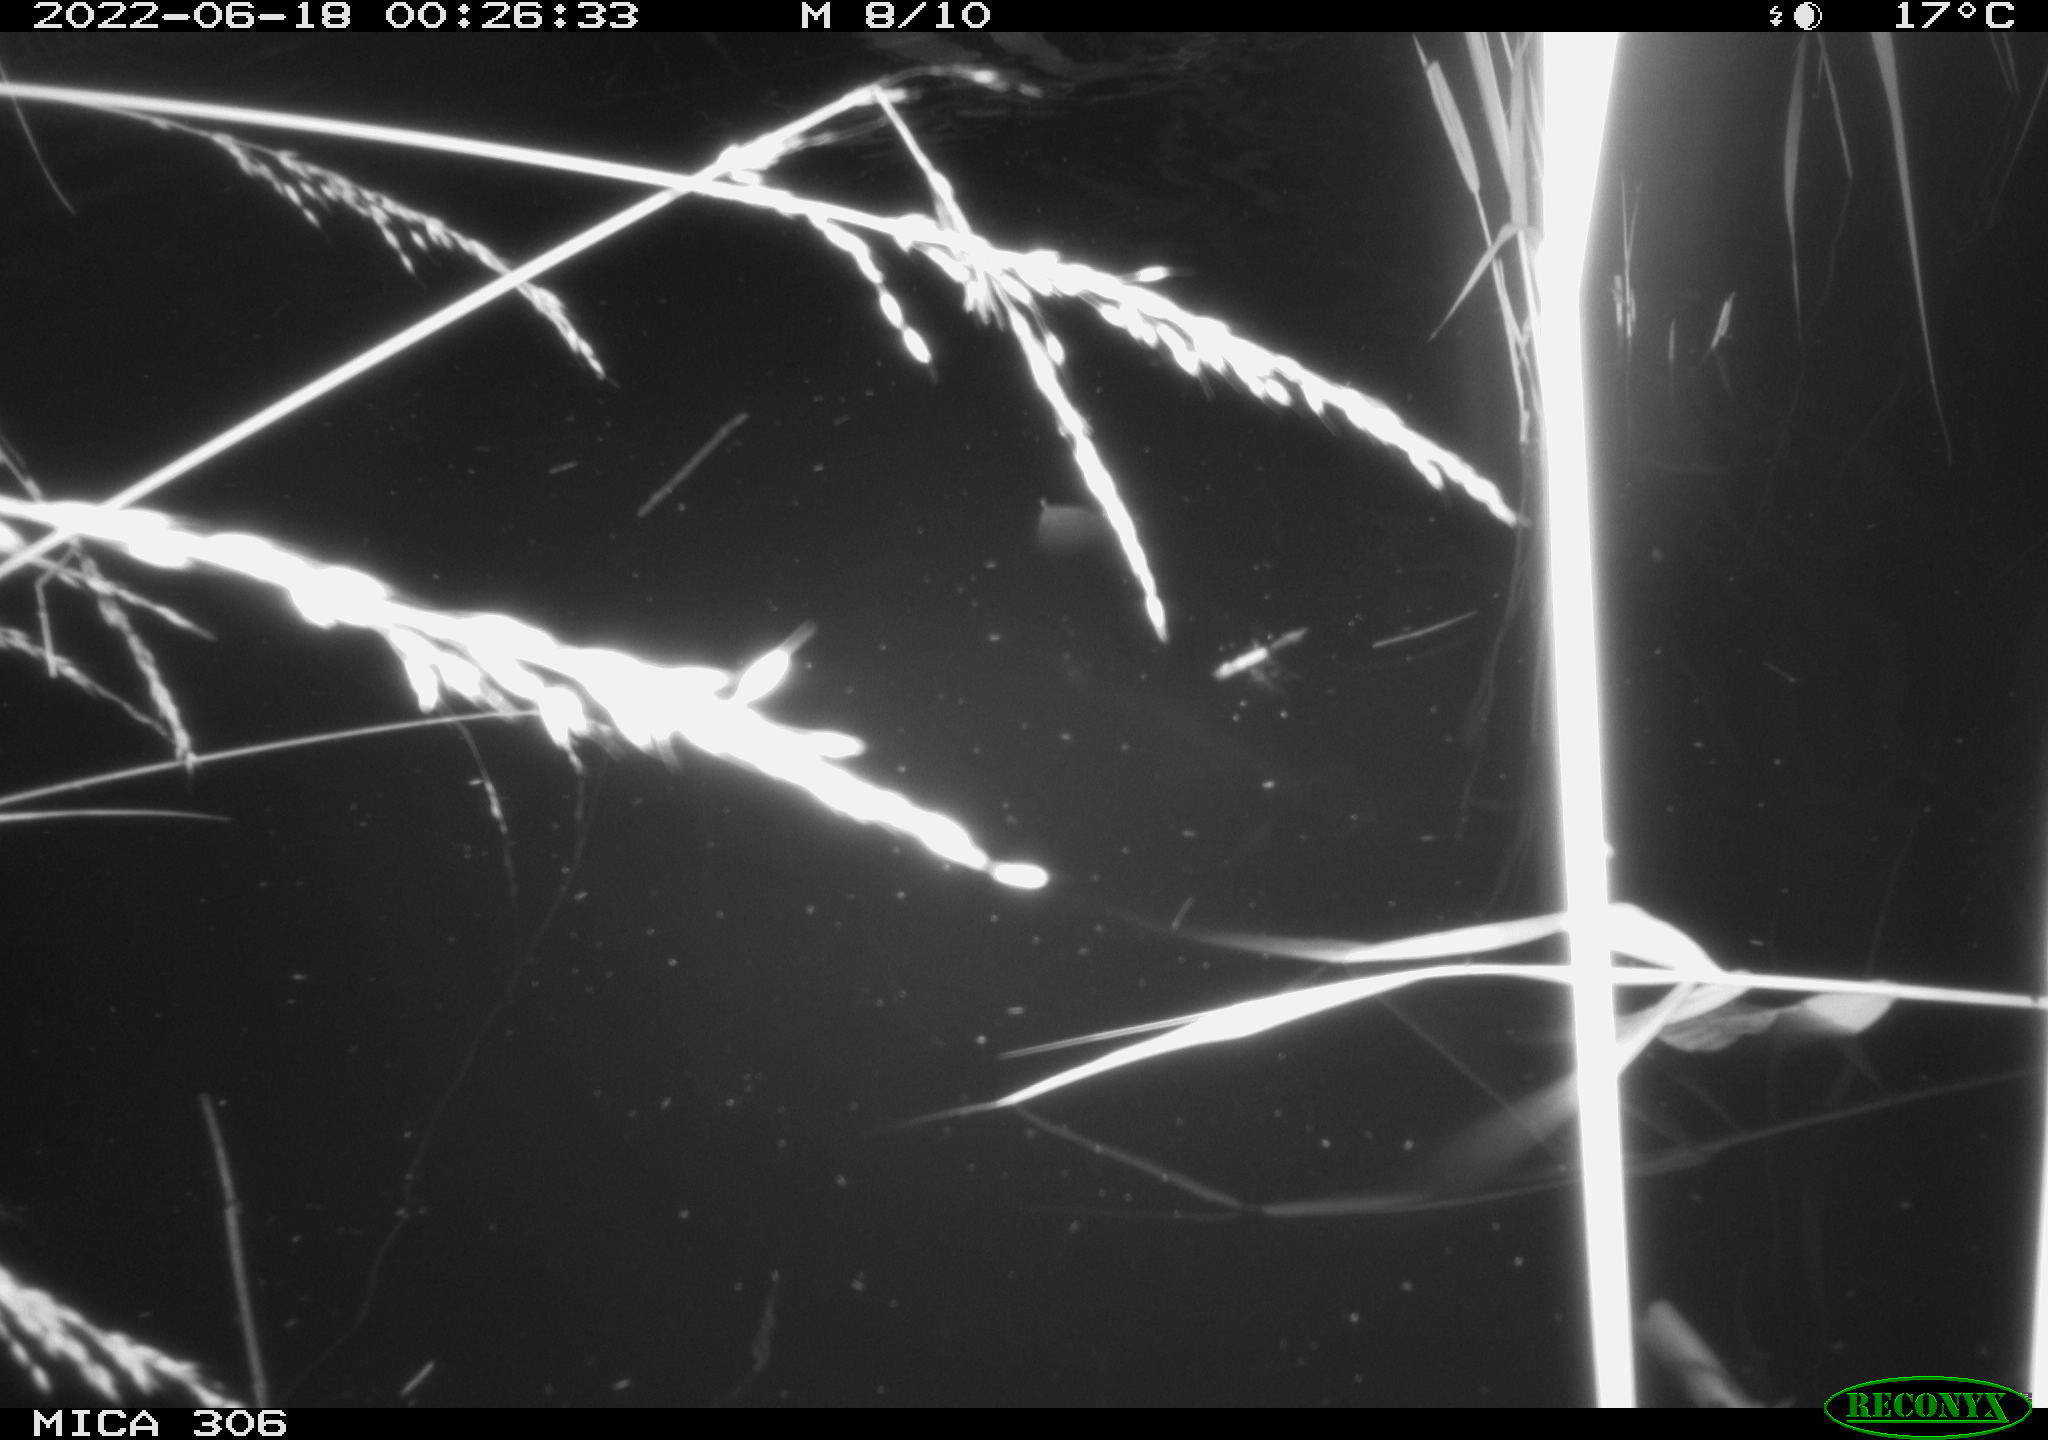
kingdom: Animalia
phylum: Chordata
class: Mammalia
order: Rodentia
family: Cricetidae
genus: Ondatra
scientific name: Ondatra zibethicus
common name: Muskrat
